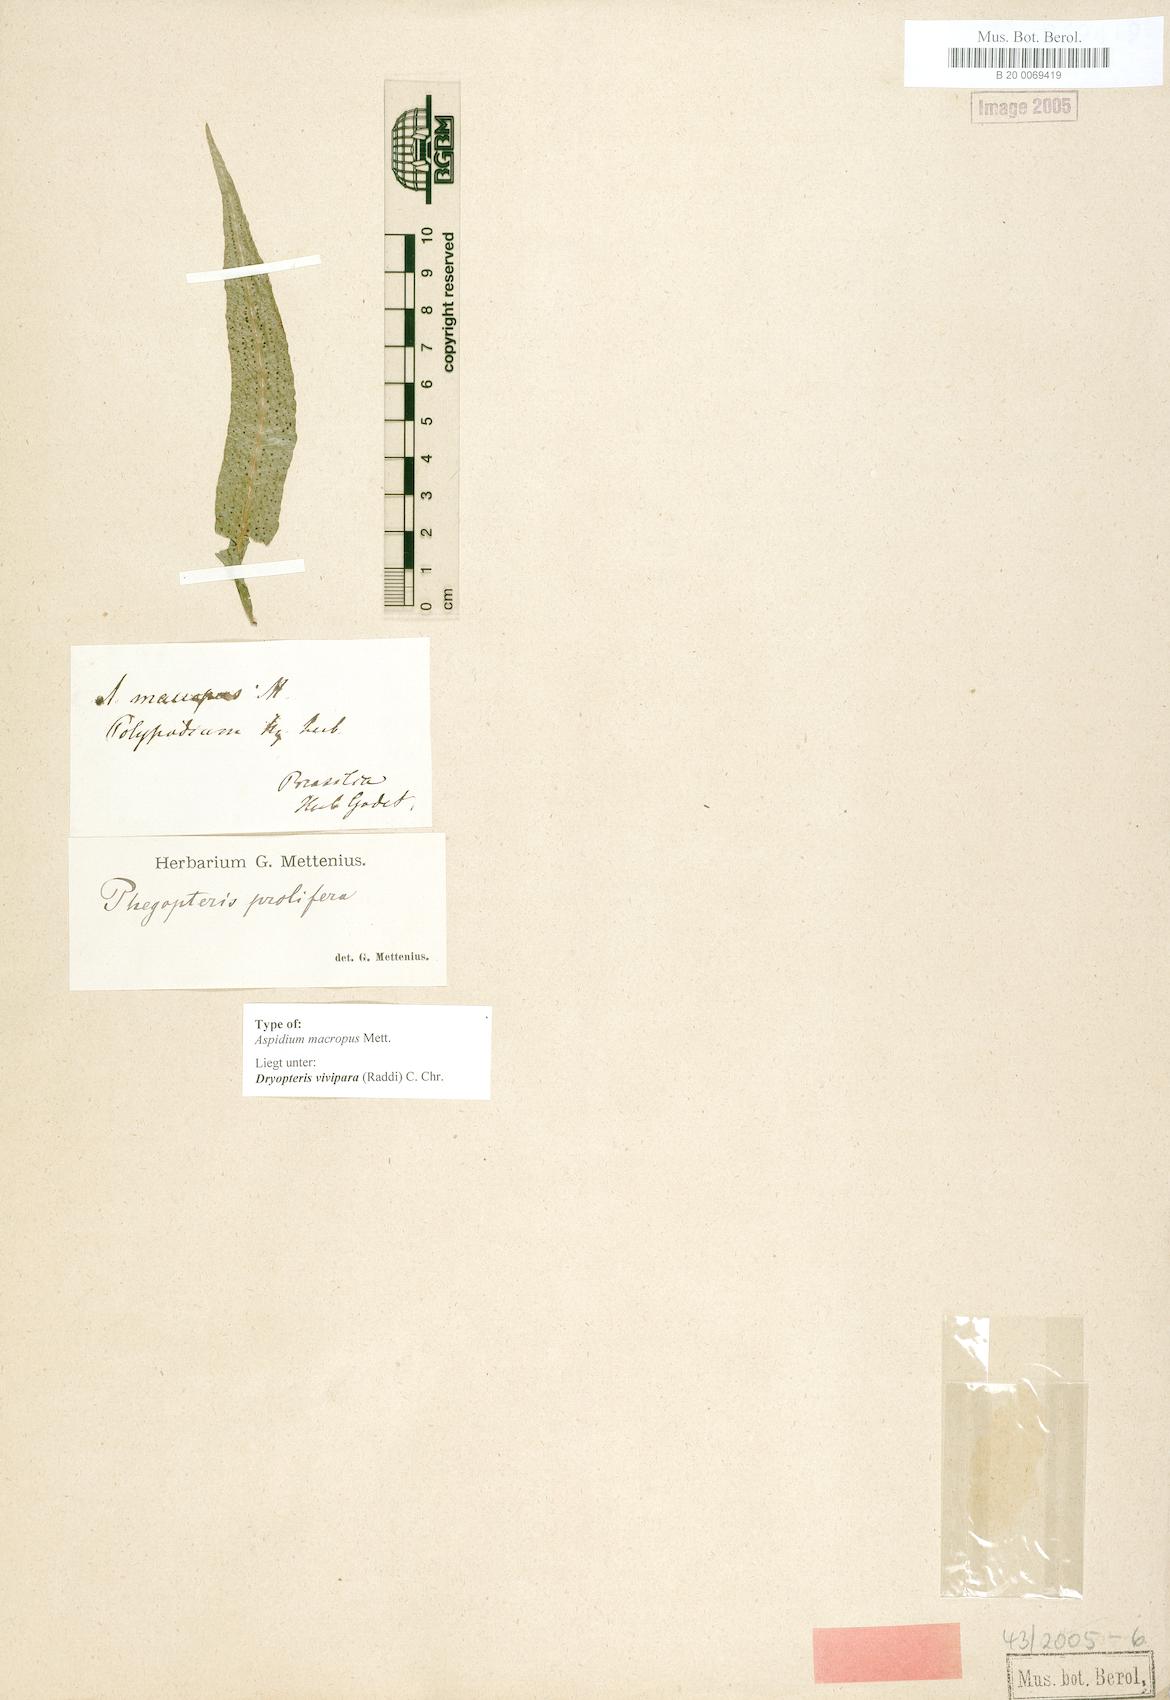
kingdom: Plantae
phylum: Tracheophyta
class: Polypodiopsida
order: Polypodiales
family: Thelypteridaceae
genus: Goniopteris
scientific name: Goniopteris vivipara
